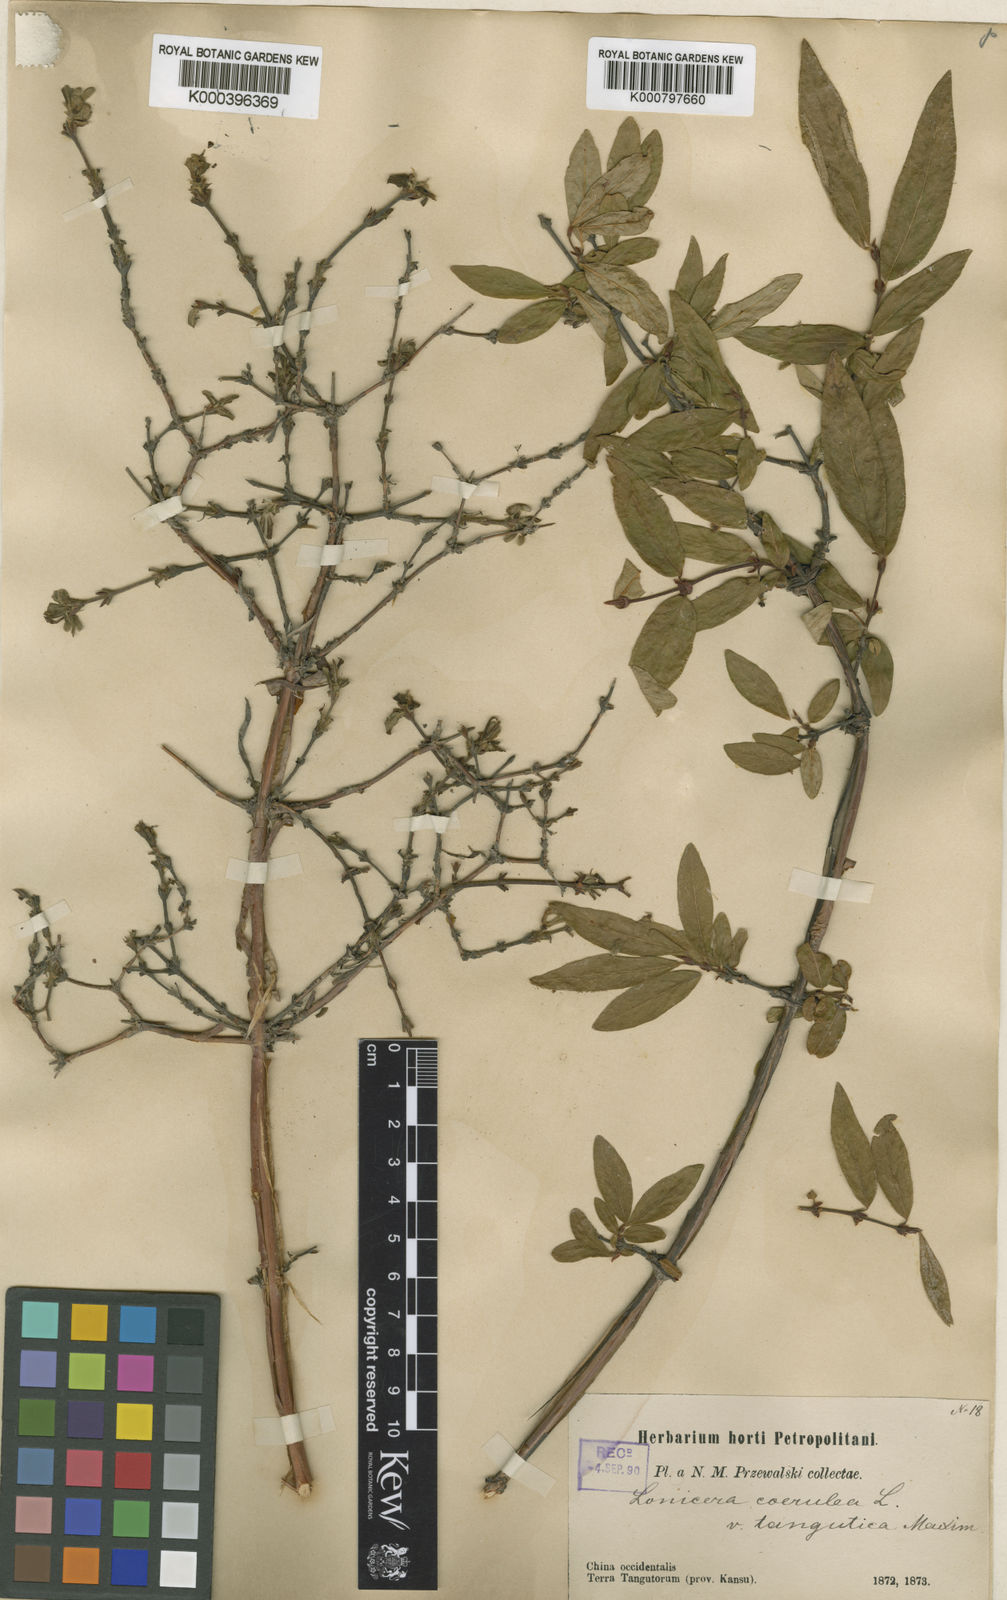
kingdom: Plantae
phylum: Tracheophyta
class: Magnoliopsida
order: Dipsacales
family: Caprifoliaceae
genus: Lonicera
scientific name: Lonicera caerulea
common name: Blue honeysuckle
